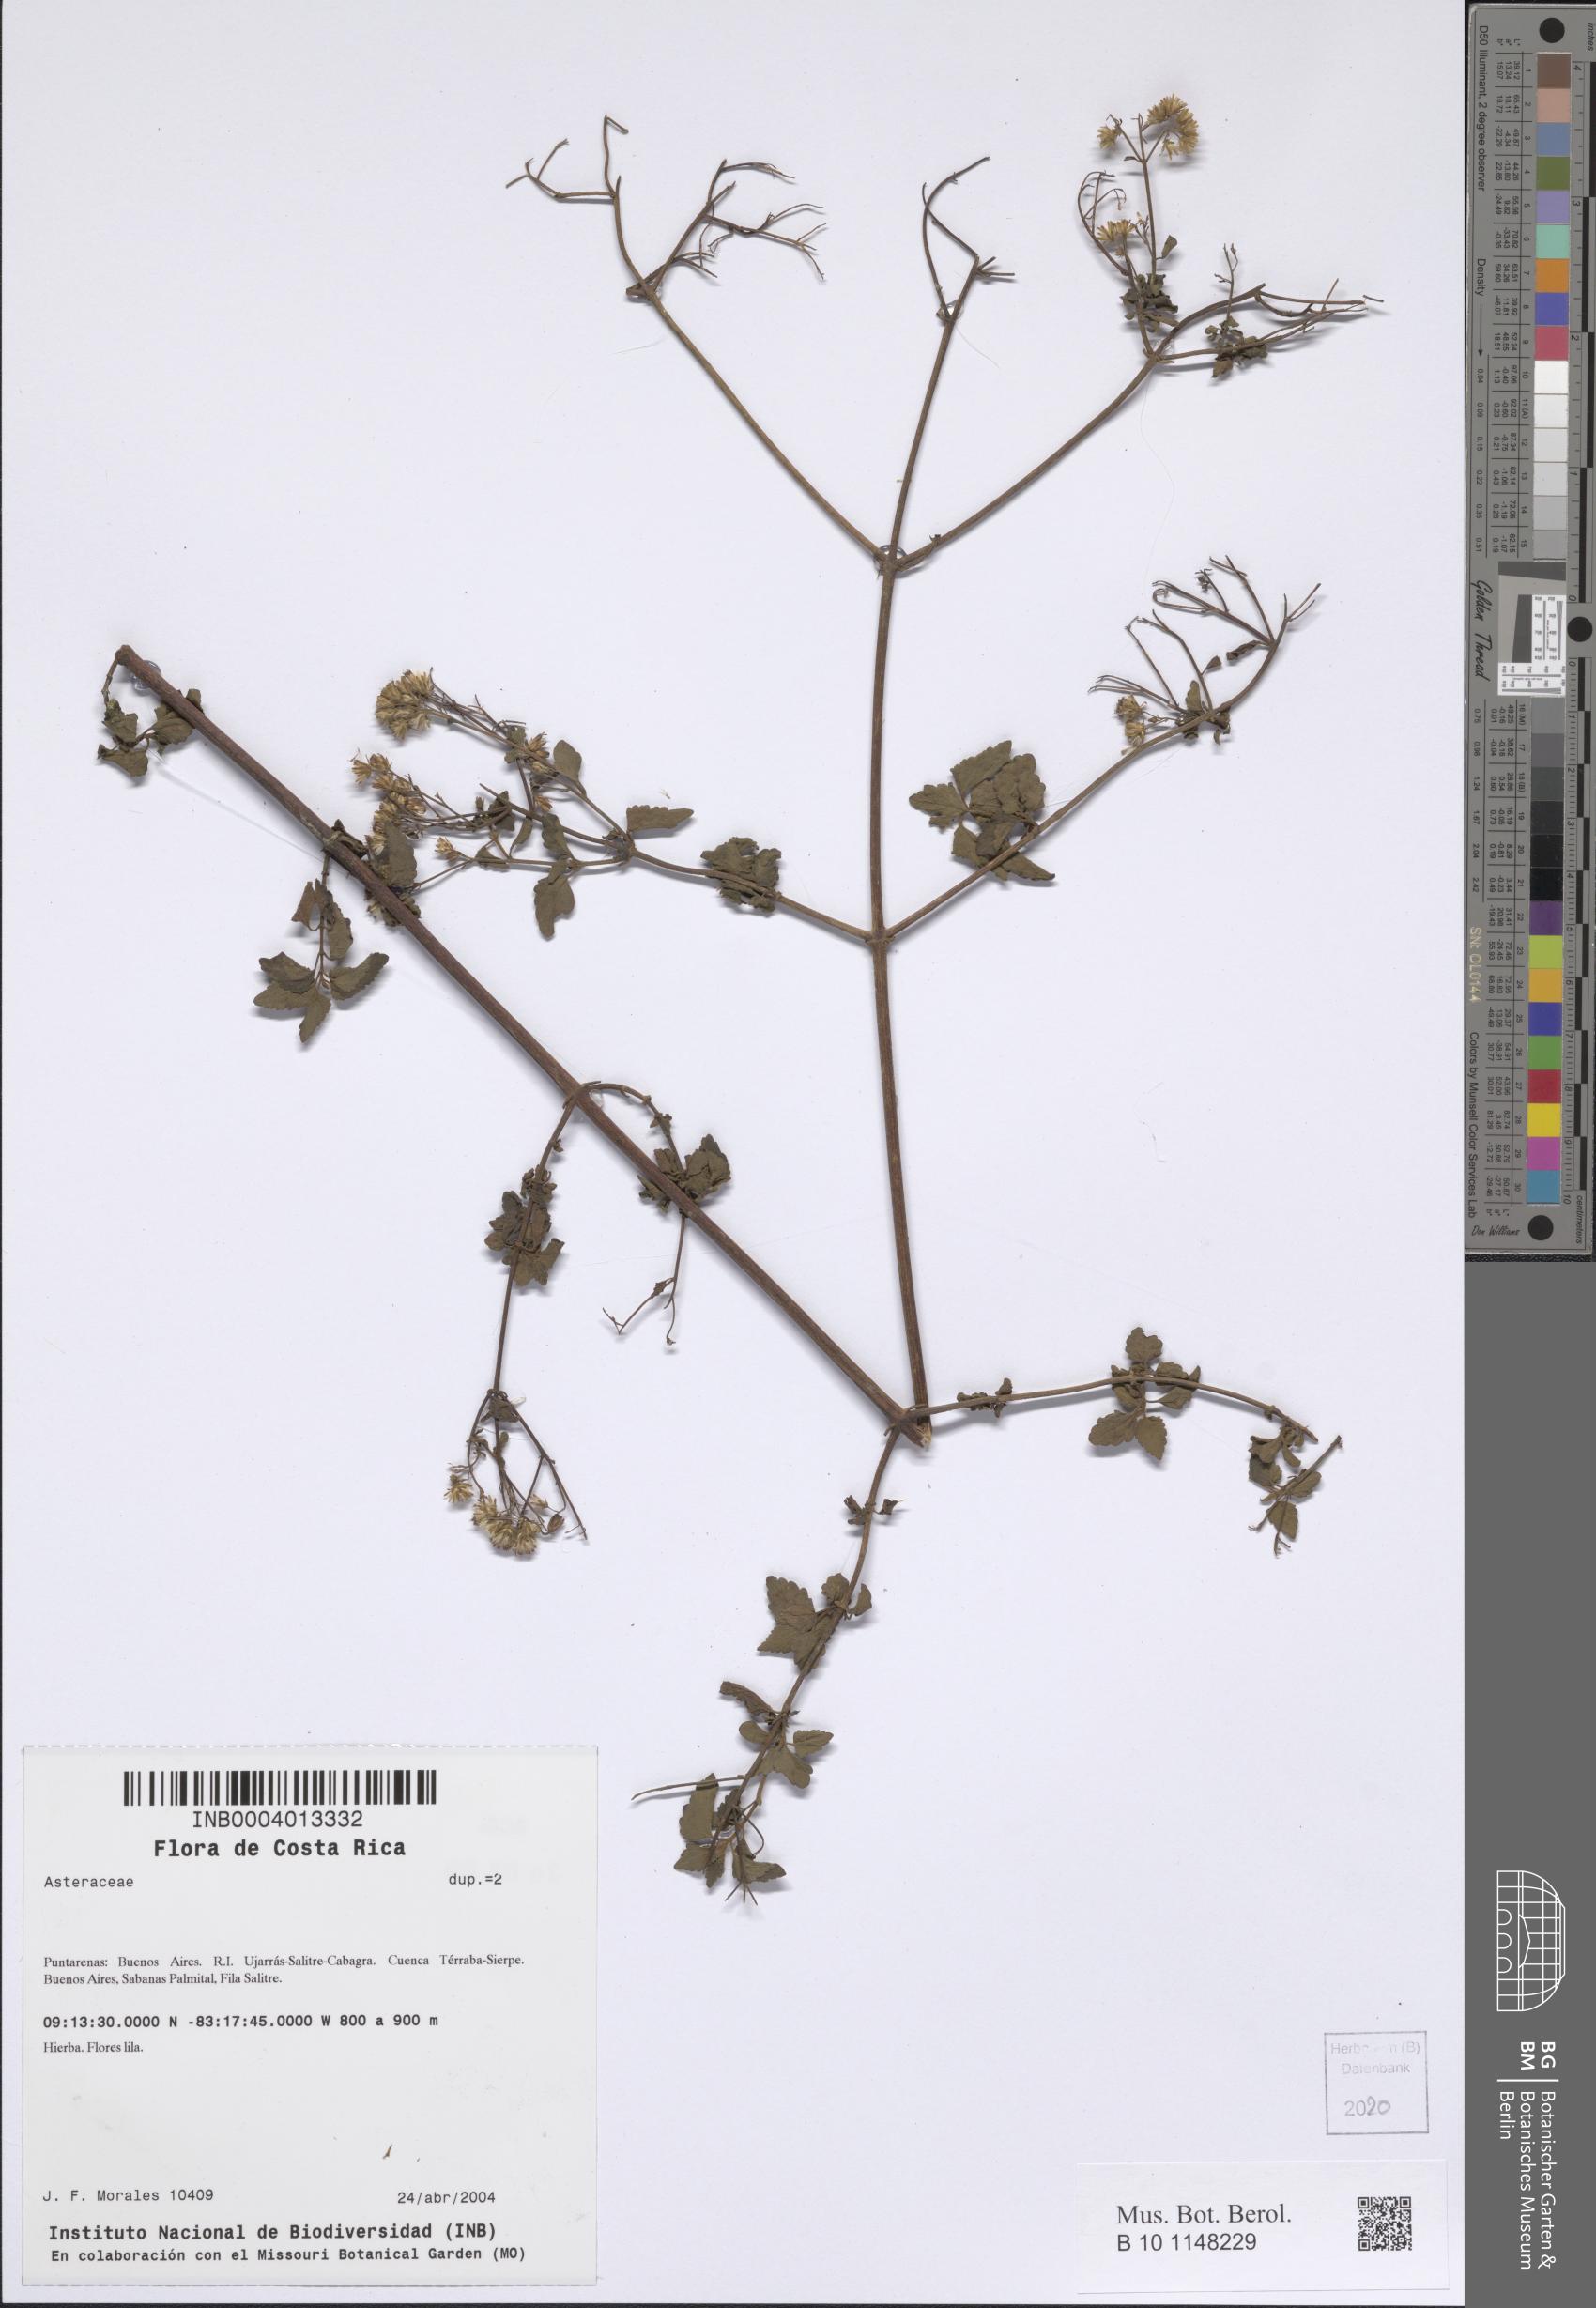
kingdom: Plantae
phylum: Tracheophyta
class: Magnoliopsida
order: Asterales
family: Asteraceae
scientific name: Asteraceae
